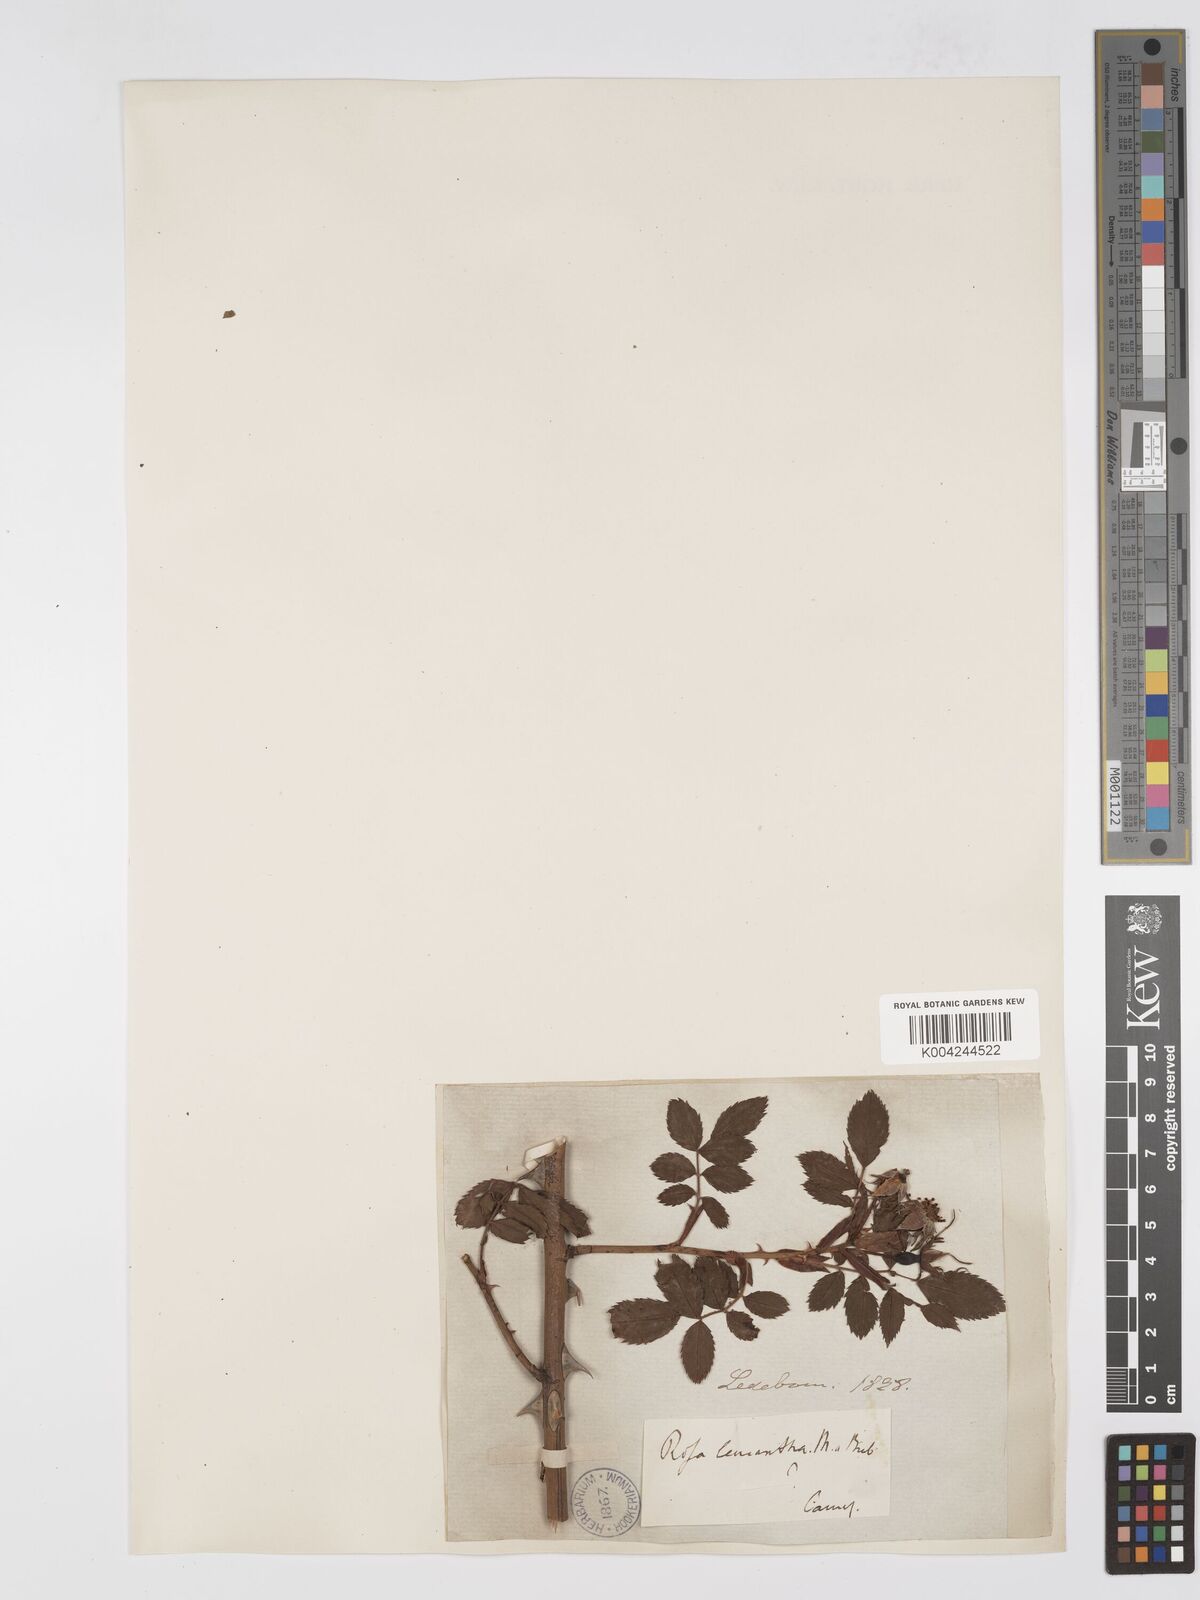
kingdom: Plantae
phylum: Tracheophyta
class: Magnoliopsida
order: Rosales
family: Rosaceae
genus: Rosa
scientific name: Rosa obtusifolia
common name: Round-leaved dog-rose
